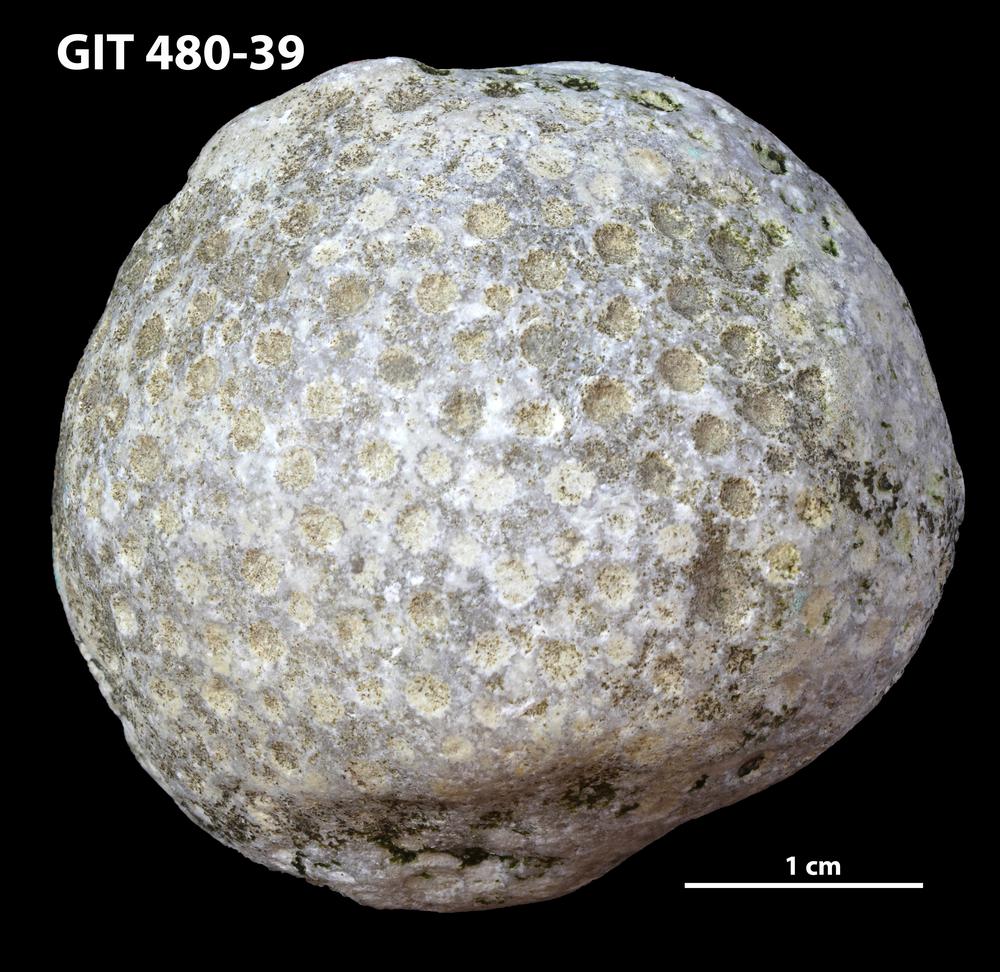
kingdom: Animalia
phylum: Xenacoelomorpha
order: Acoela
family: Proporidae
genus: Propora
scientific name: Propora
